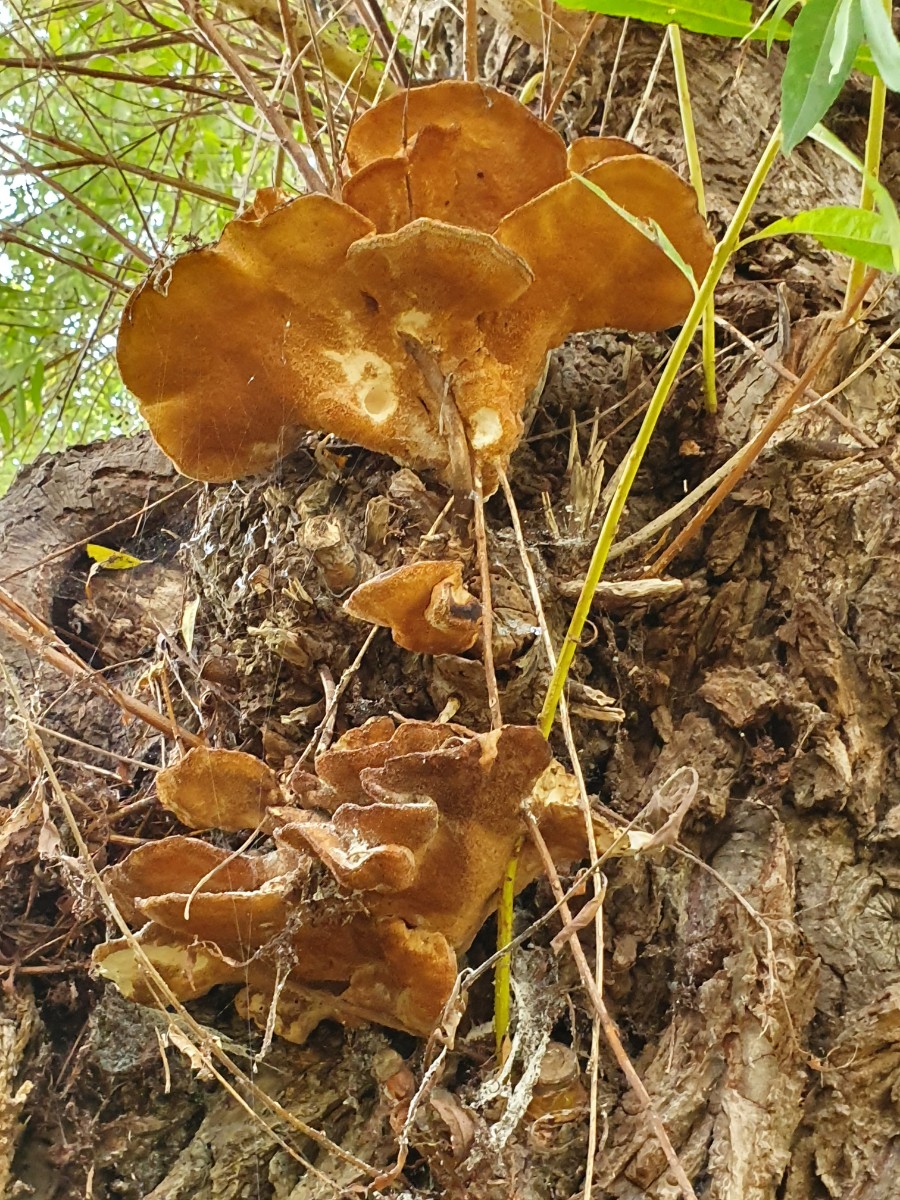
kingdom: Fungi
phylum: Basidiomycota
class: Agaricomycetes
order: Polyporales
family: Laetiporaceae
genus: Laetiporus
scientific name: Laetiporus sulphureus
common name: svovlporesvamp
